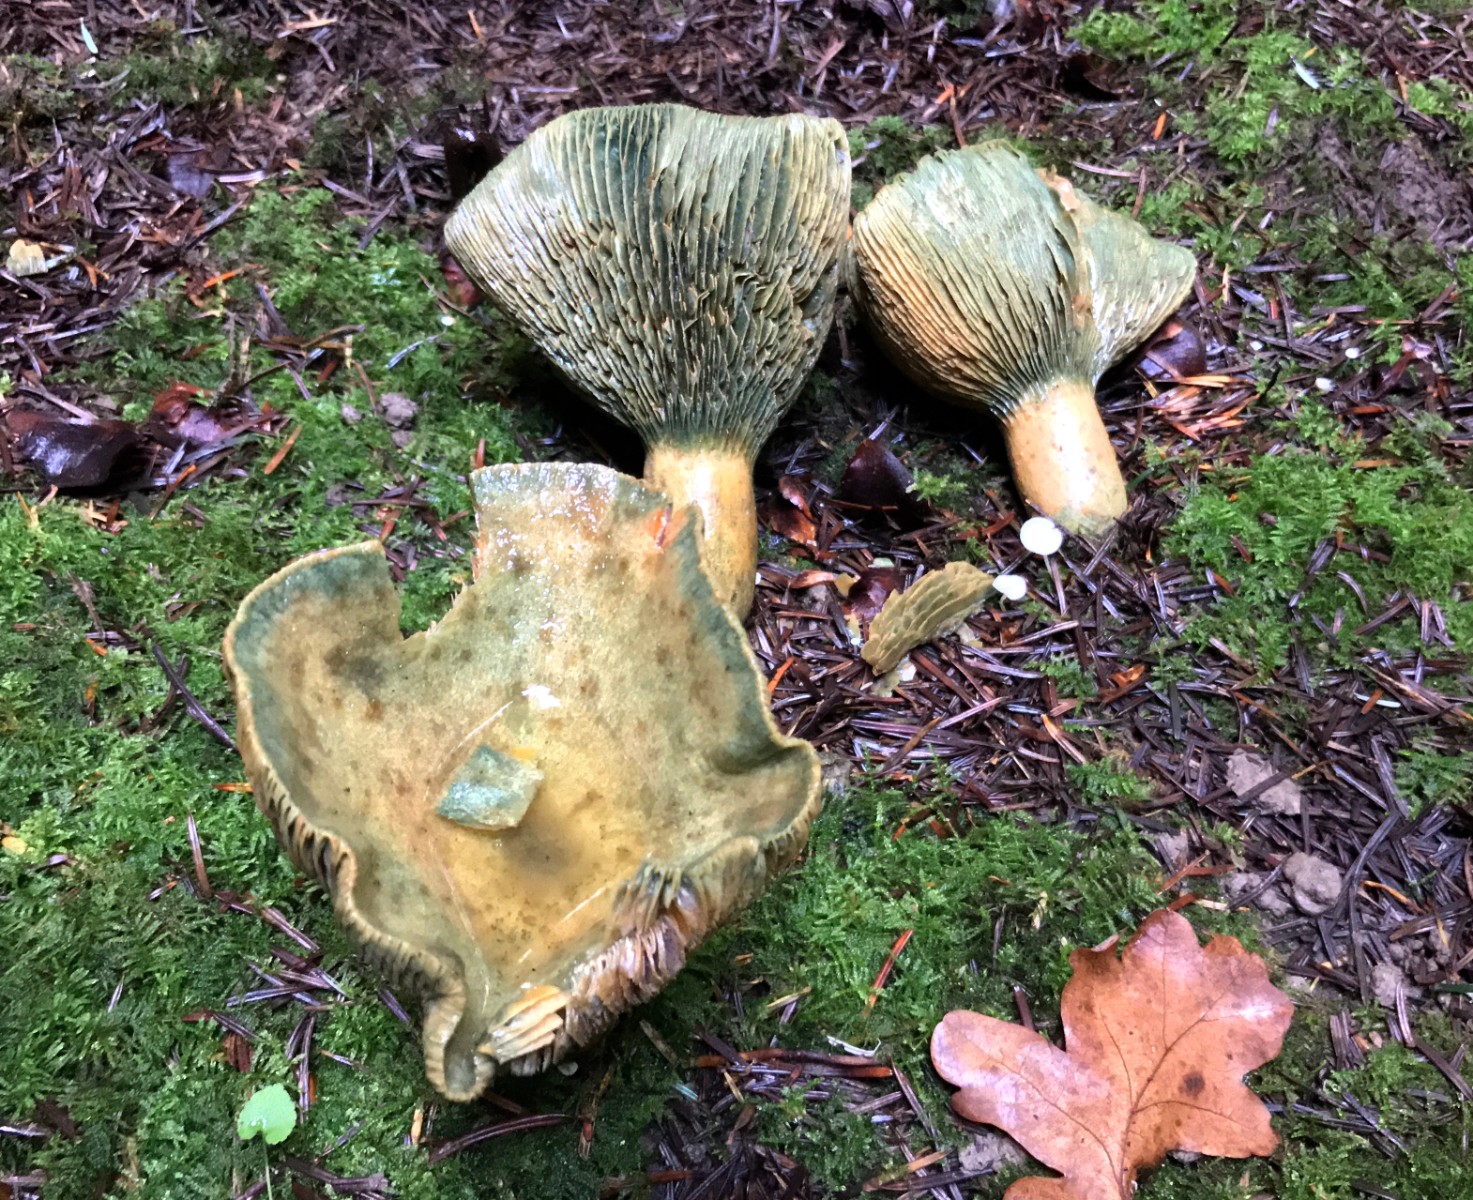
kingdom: Fungi
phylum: Basidiomycota
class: Agaricomycetes
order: Russulales
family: Russulaceae
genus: Lactarius
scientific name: Lactarius deterrimus
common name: gran-mælkehat
